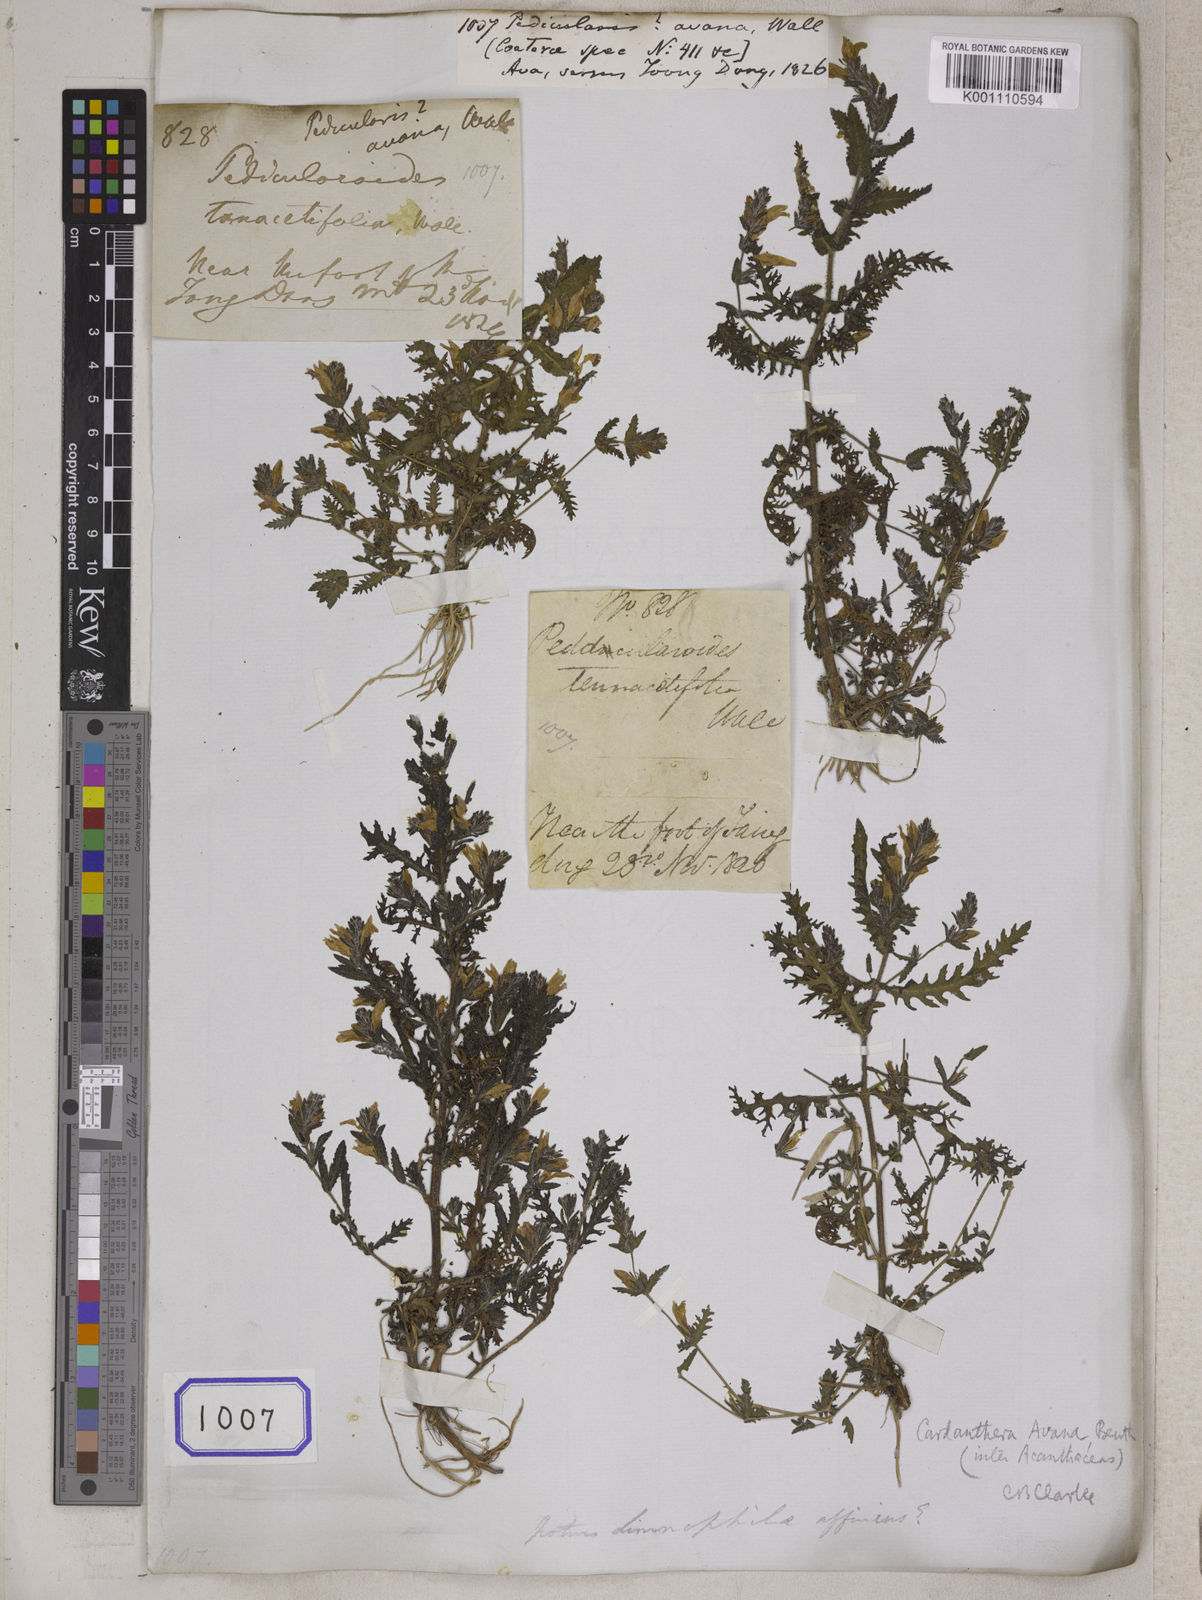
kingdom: Plantae
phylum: Tracheophyta
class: Magnoliopsida
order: Lamiales
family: Acanthaceae
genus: Hygrophila
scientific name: Hygrophila biplicata
